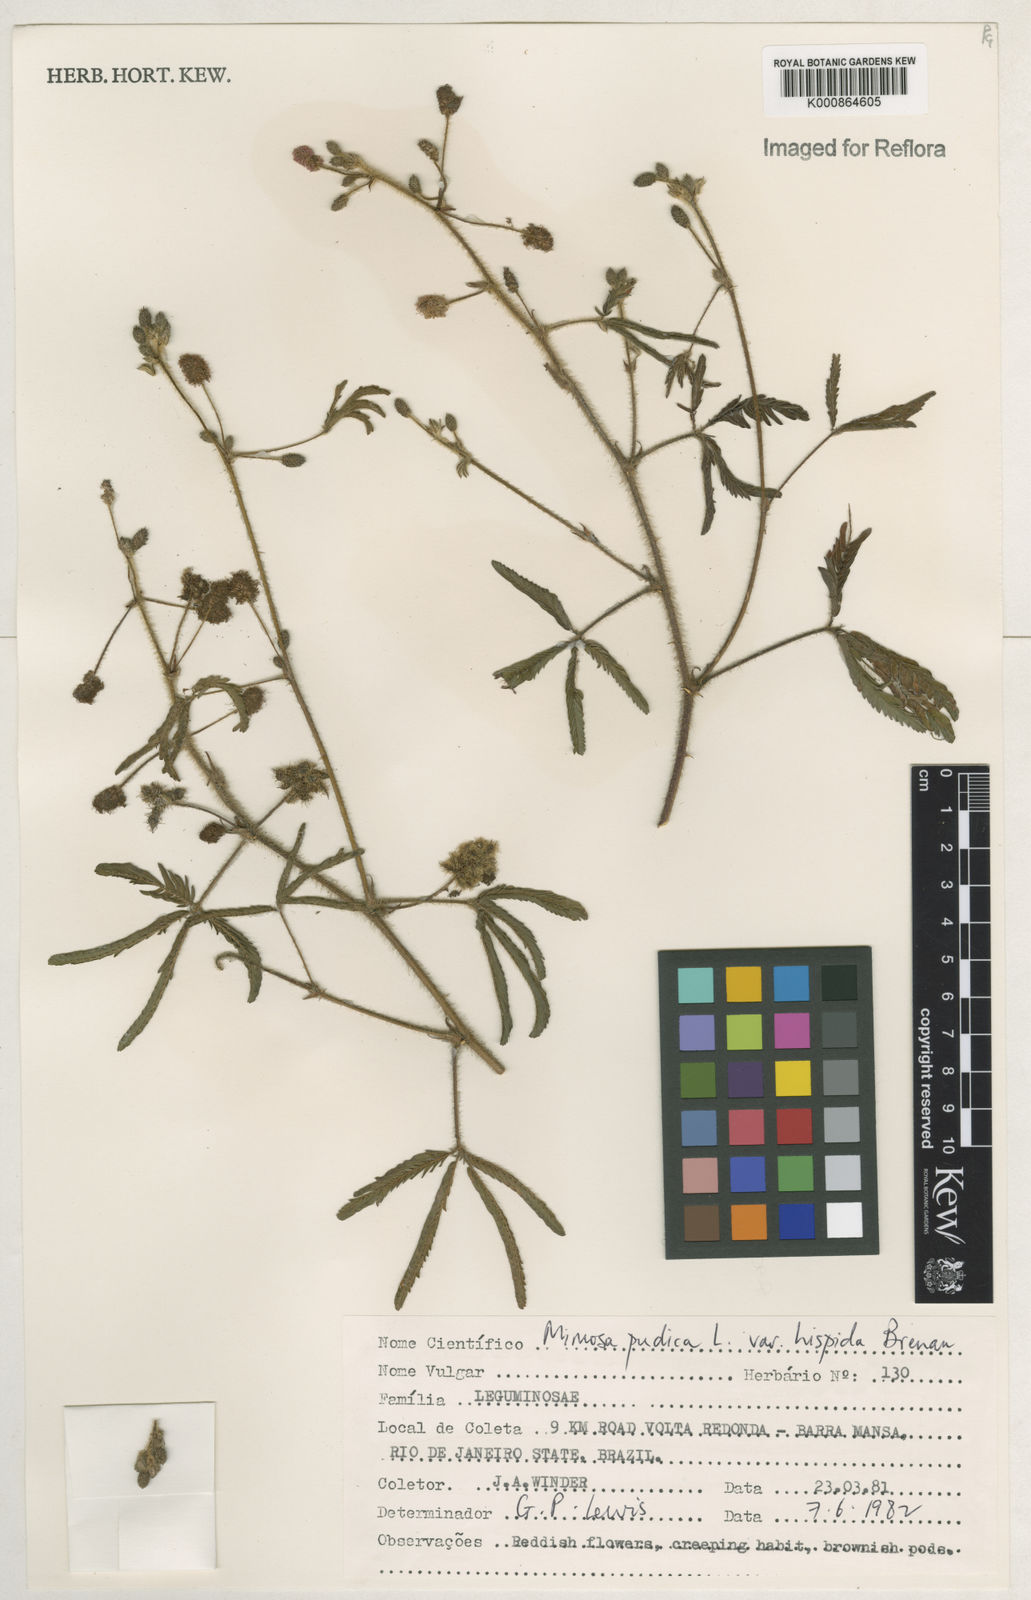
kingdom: Plantae
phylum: Tracheophyta
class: Magnoliopsida
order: Fabales
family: Fabaceae
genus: Mimosa
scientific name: Mimosa pudica
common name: Sensitive plant
